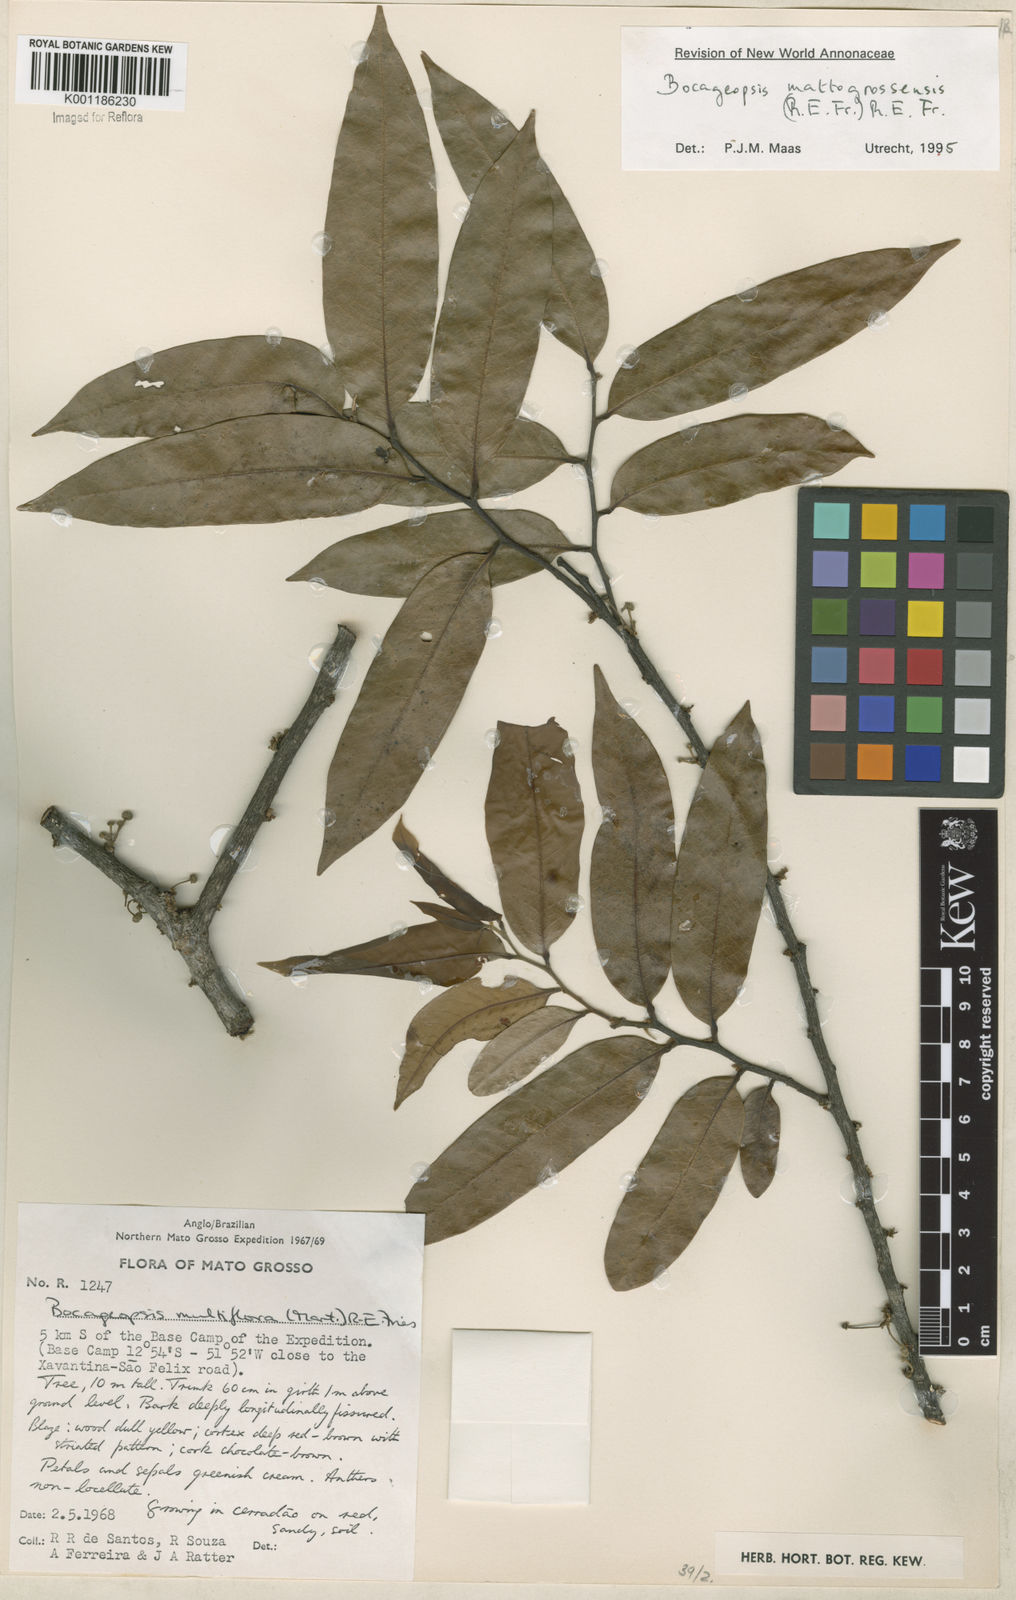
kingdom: Plantae
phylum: Tracheophyta
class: Magnoliopsida
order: Magnoliales
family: Annonaceae
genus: Bocageopsis
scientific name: Bocageopsis mattogrossensis
